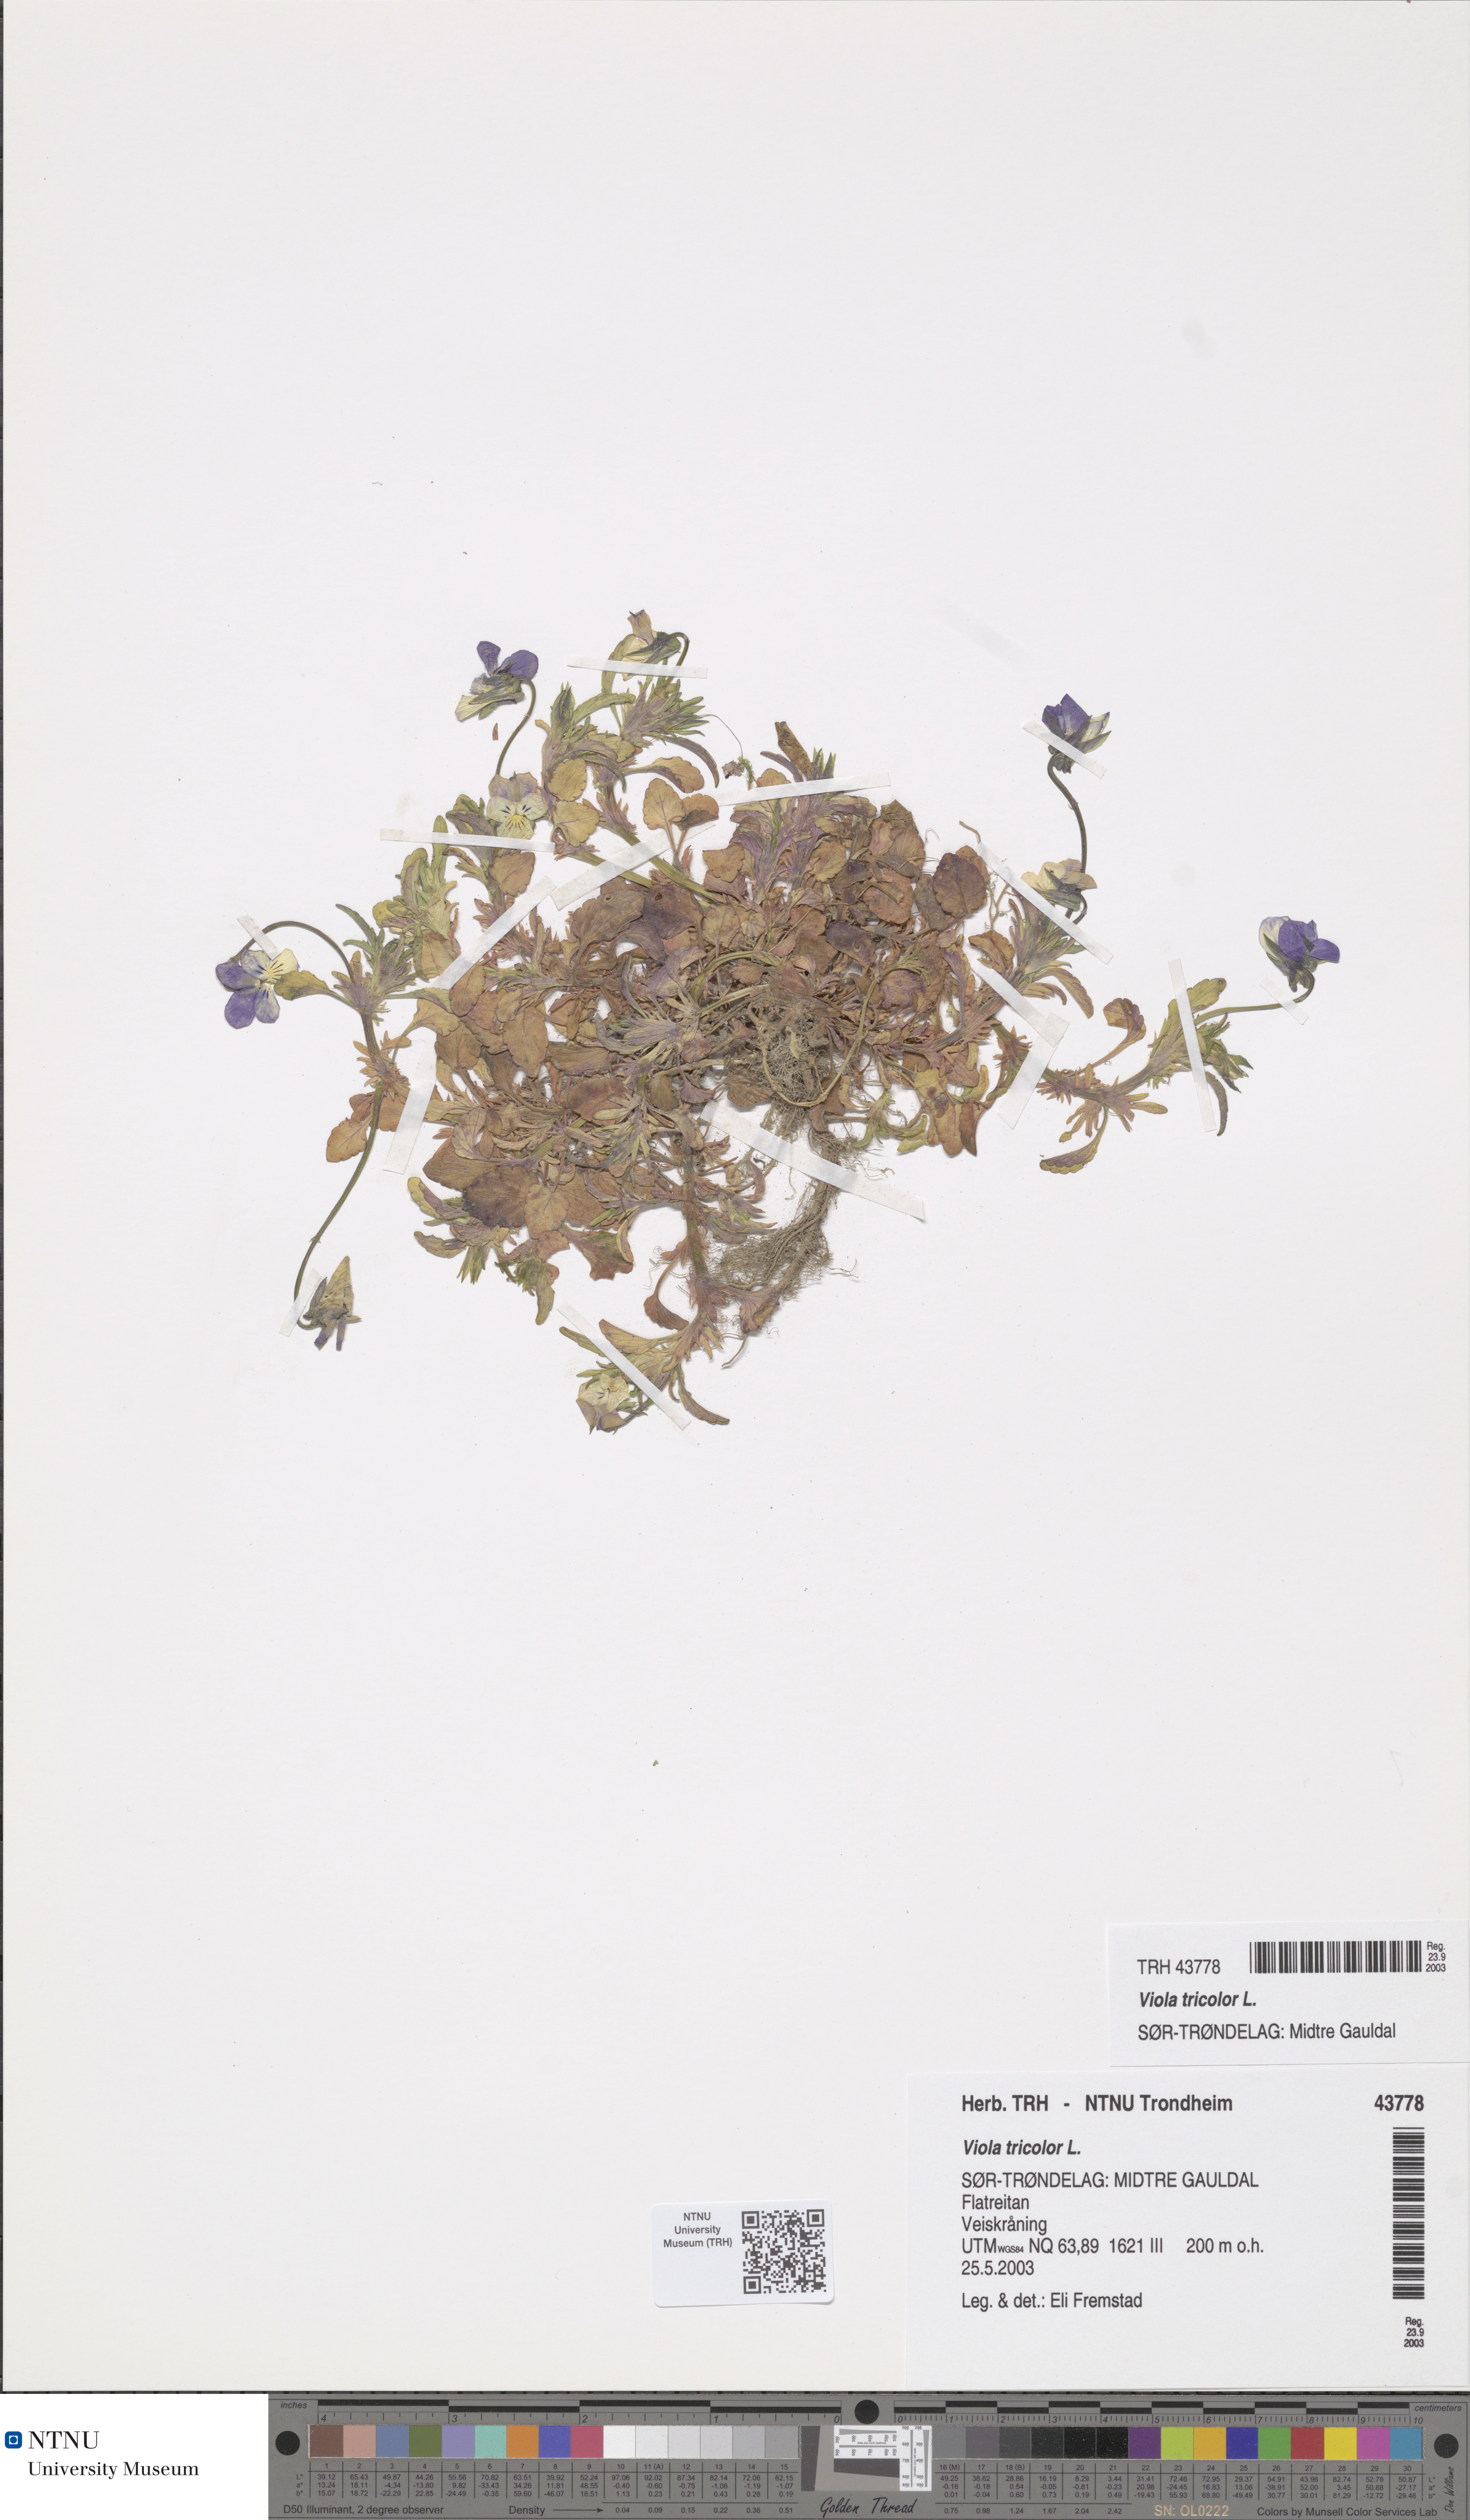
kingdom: Plantae
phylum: Tracheophyta
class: Magnoliopsida
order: Malpighiales
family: Violaceae
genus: Viola
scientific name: Viola tricolor
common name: Pansy
